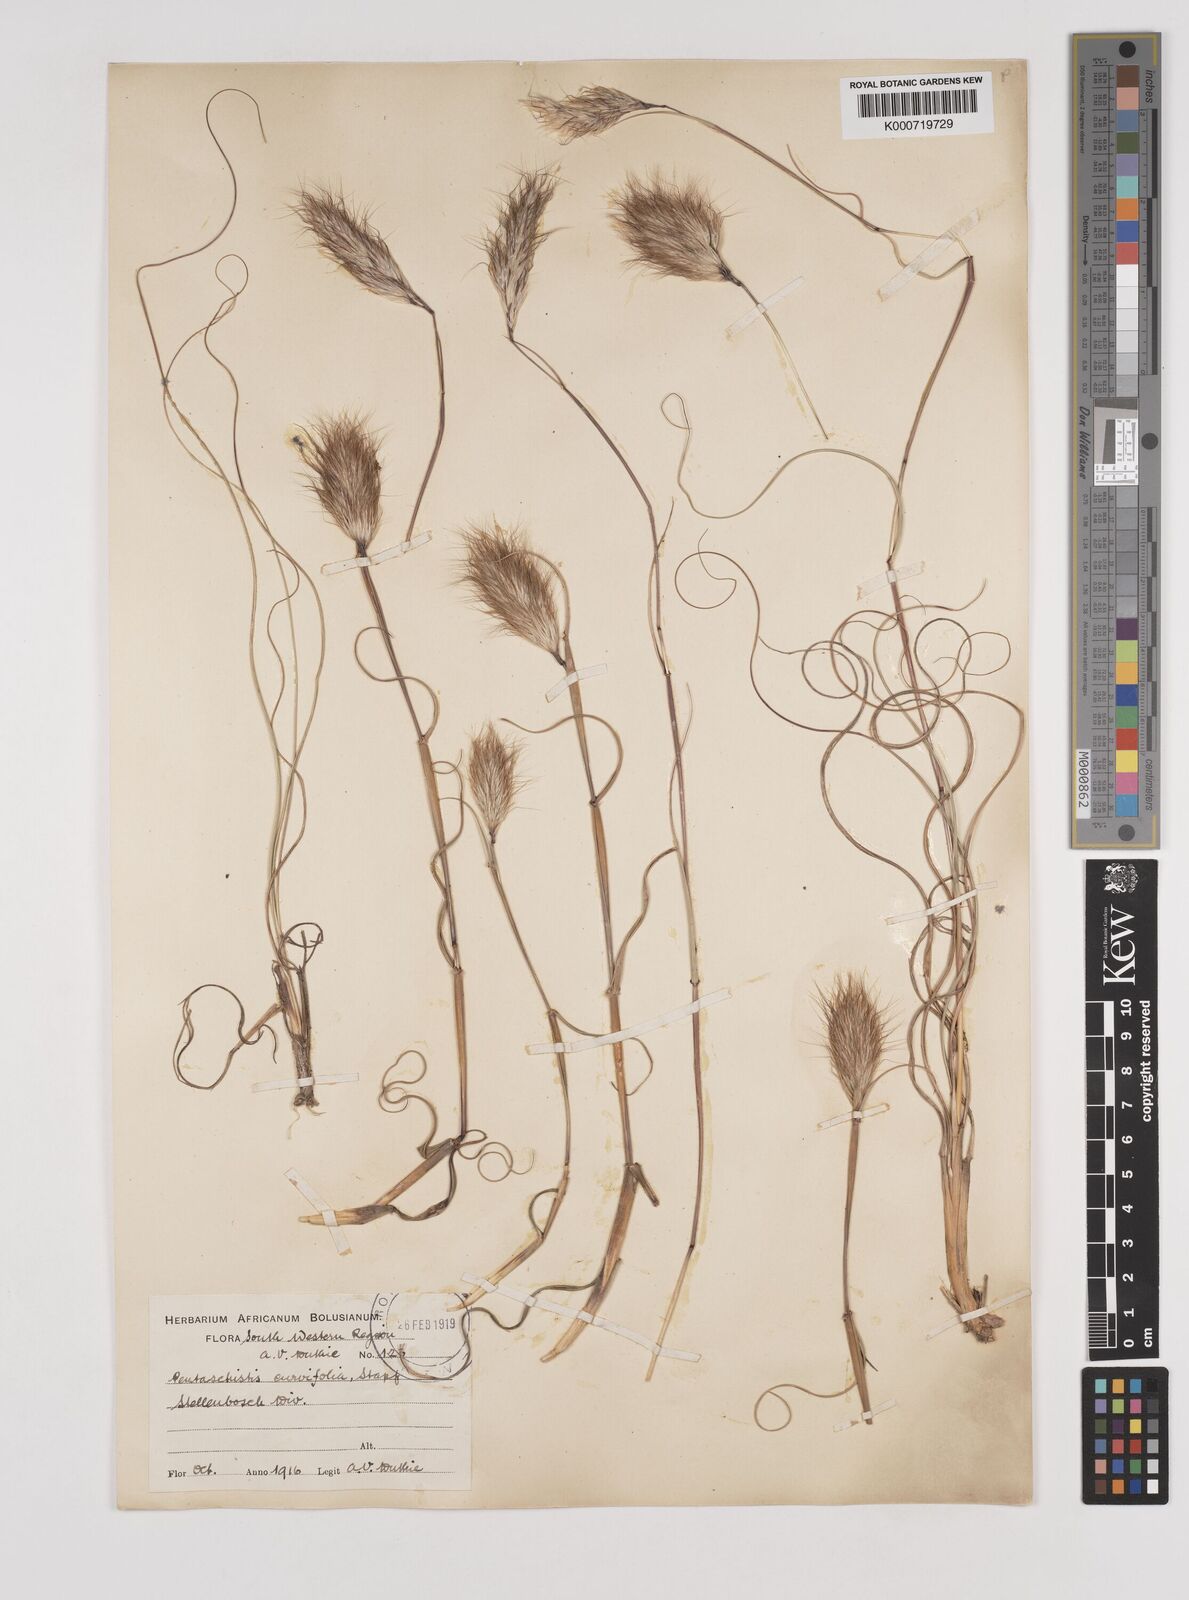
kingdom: Plantae
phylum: Tracheophyta
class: Liliopsida
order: Poales
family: Poaceae
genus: Pentameris
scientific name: Pentameris curvifolia
